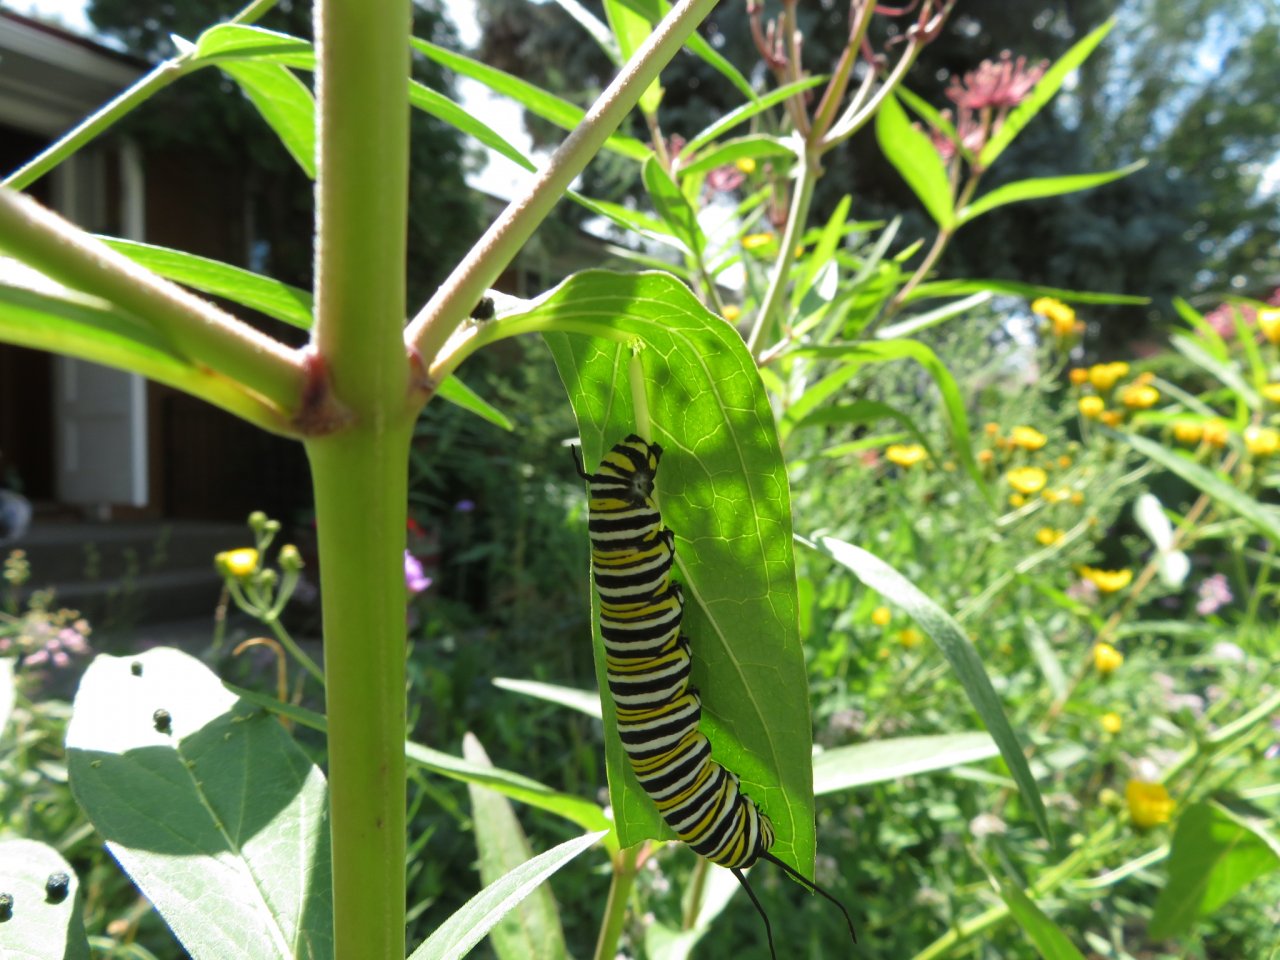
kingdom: Animalia
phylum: Arthropoda
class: Insecta
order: Lepidoptera
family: Nymphalidae
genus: Danaus
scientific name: Danaus plexippus
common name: Monarch
